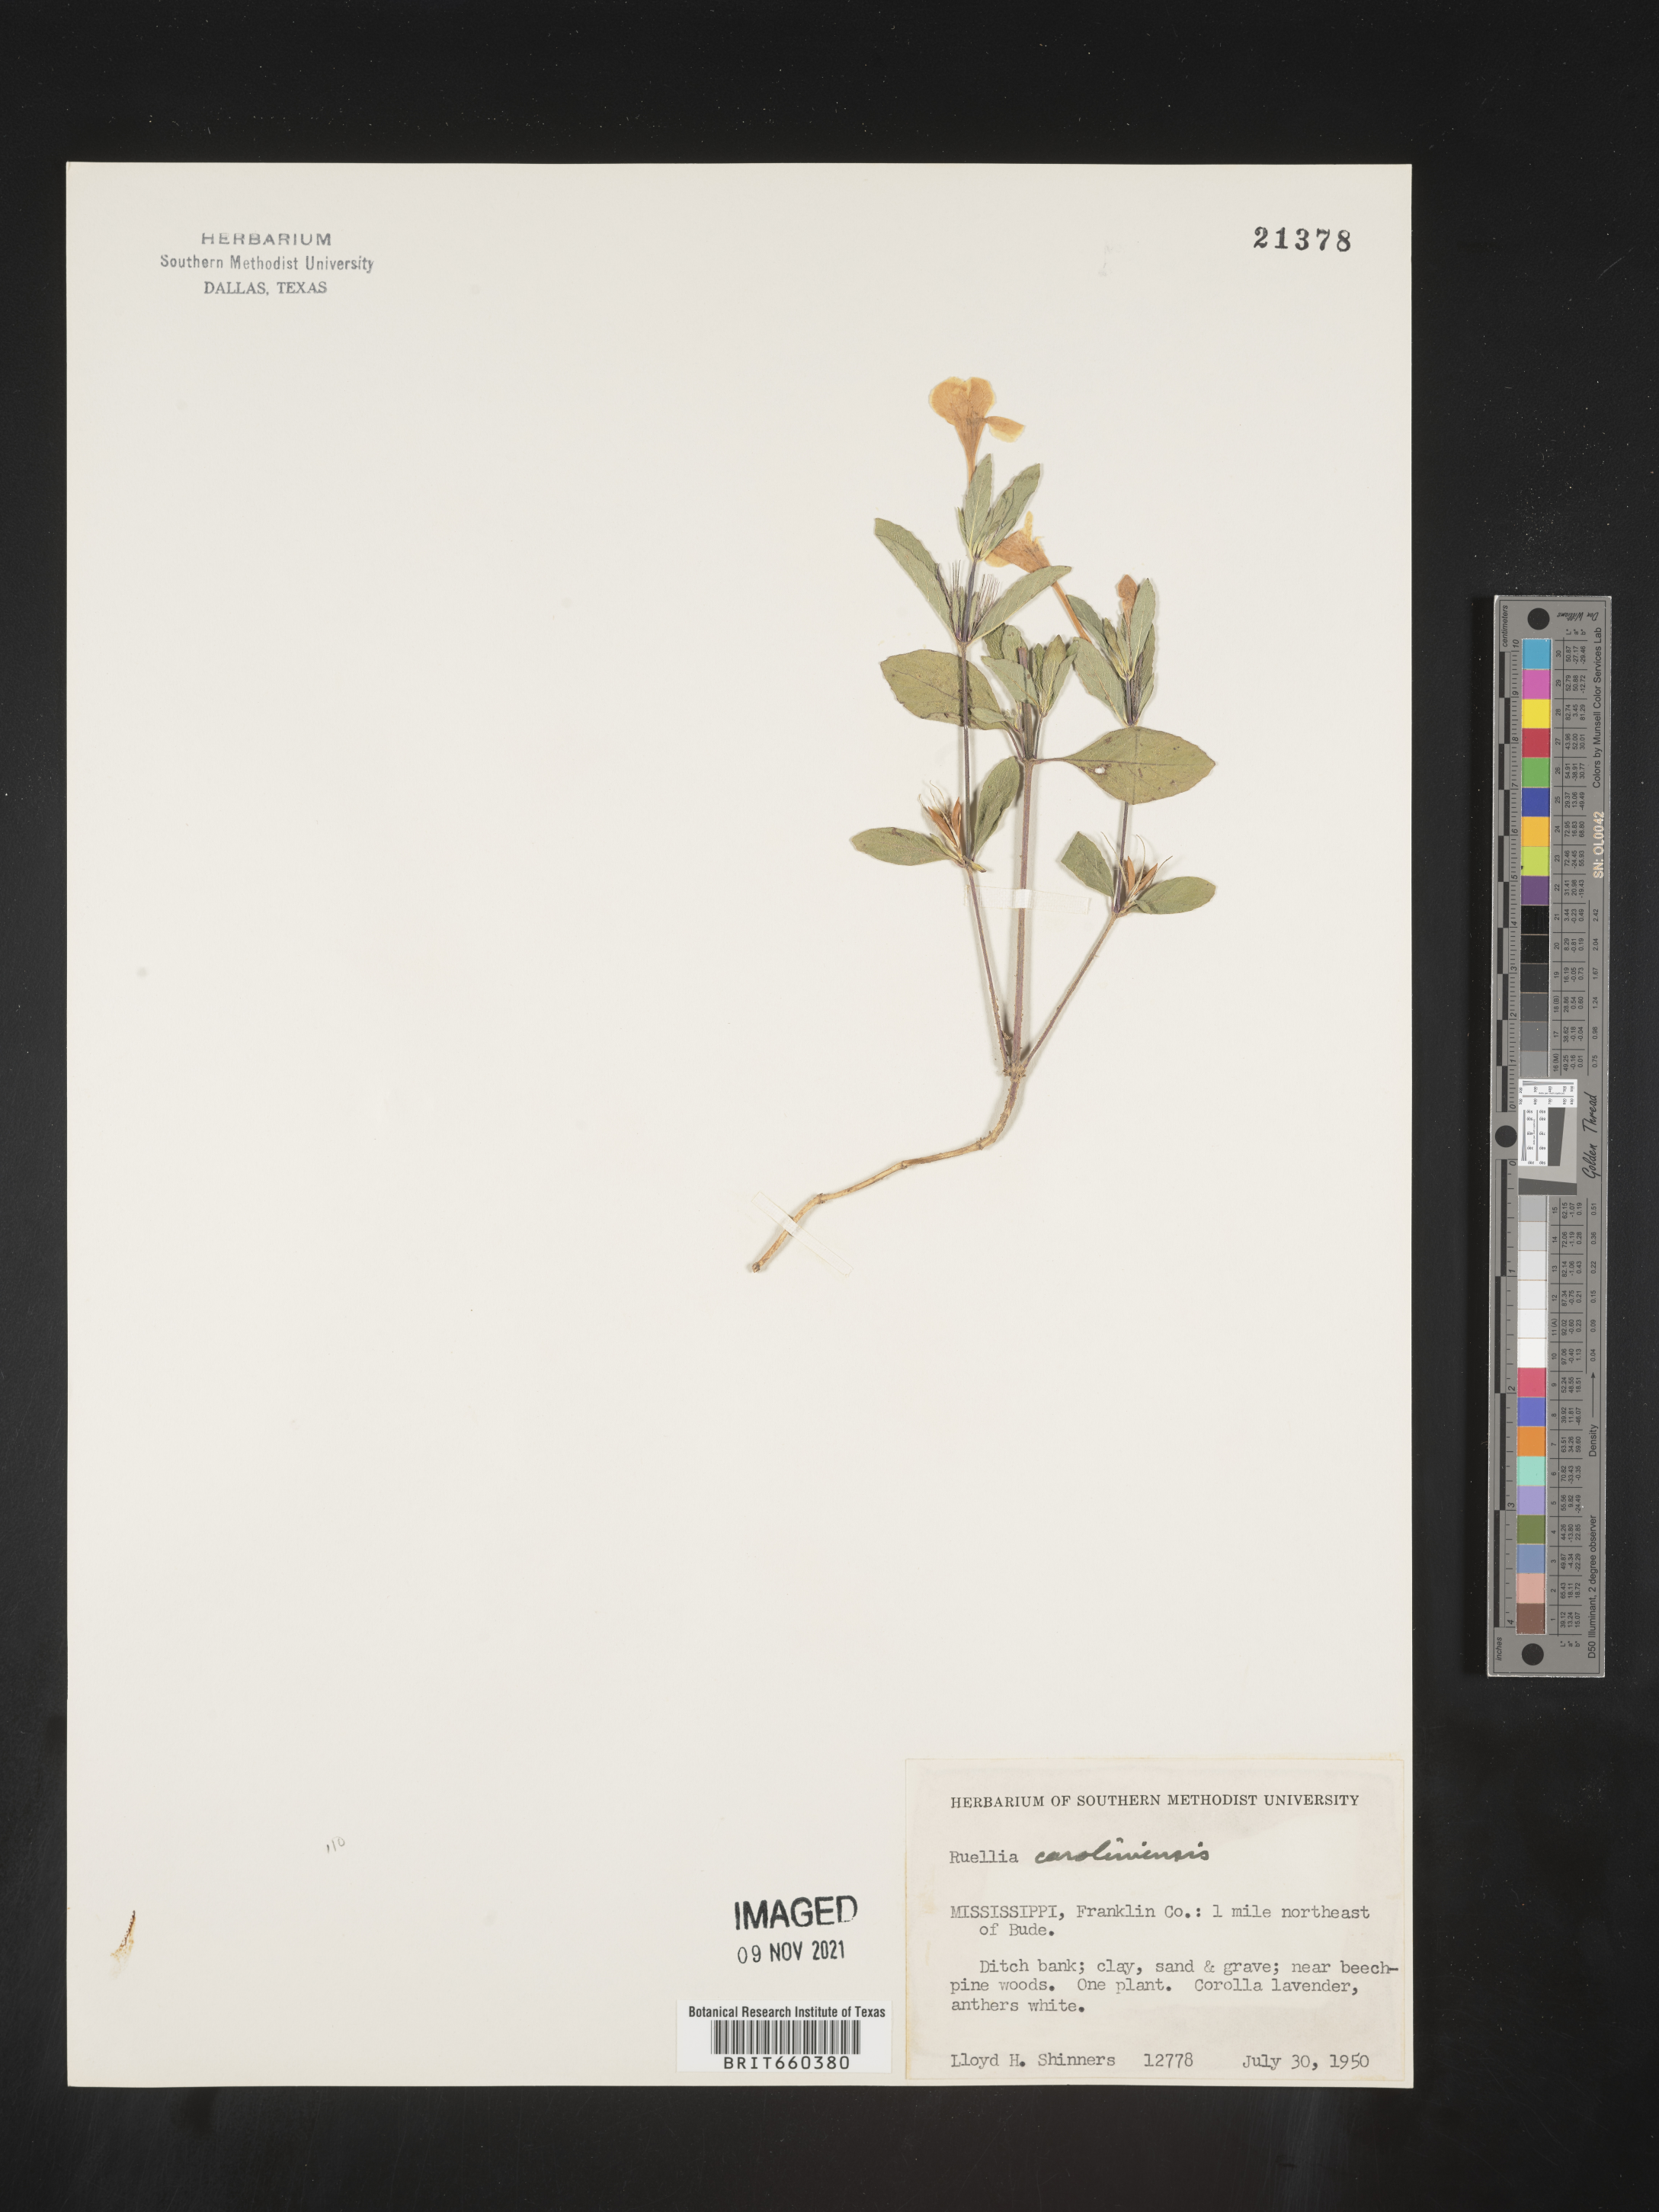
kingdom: Plantae
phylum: Tracheophyta
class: Magnoliopsida
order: Lamiales
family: Acanthaceae
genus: Ruellia
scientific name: Ruellia caroliniensis
